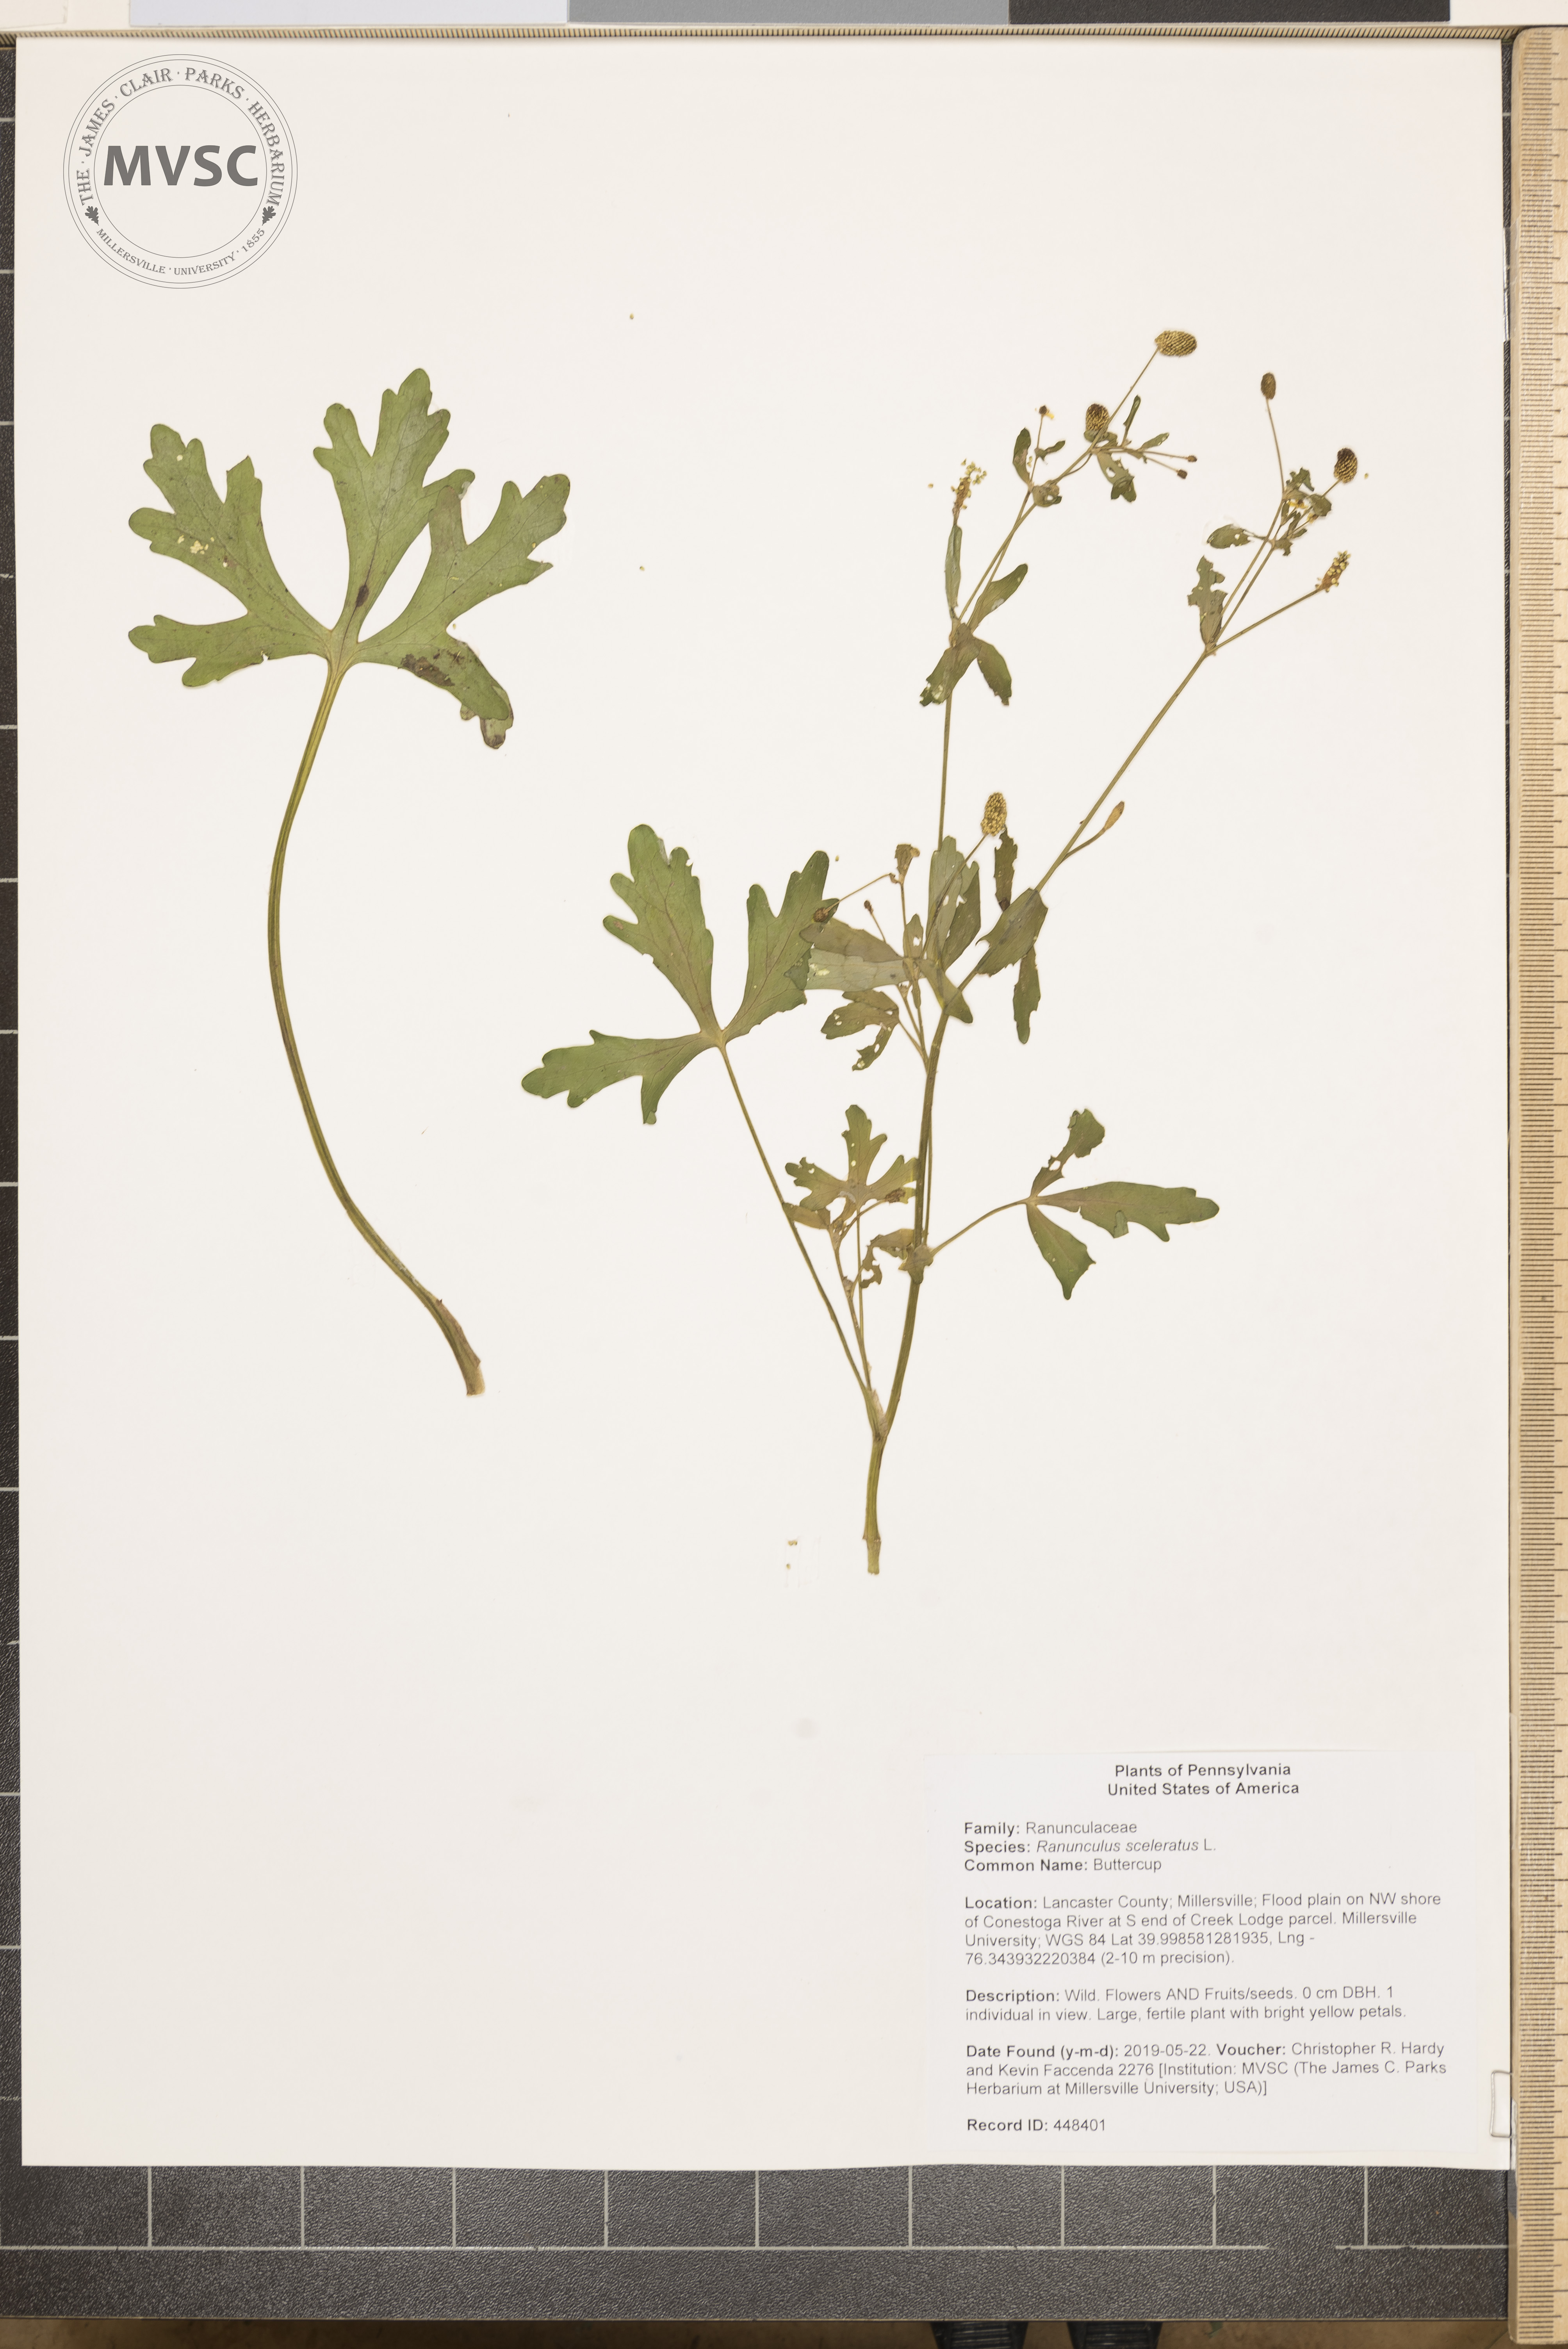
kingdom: Plantae
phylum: Tracheophyta
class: Magnoliopsida
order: Ranunculales
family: Ranunculaceae
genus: Ranunculus
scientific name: Ranunculus sceleratus
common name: Buttercup
